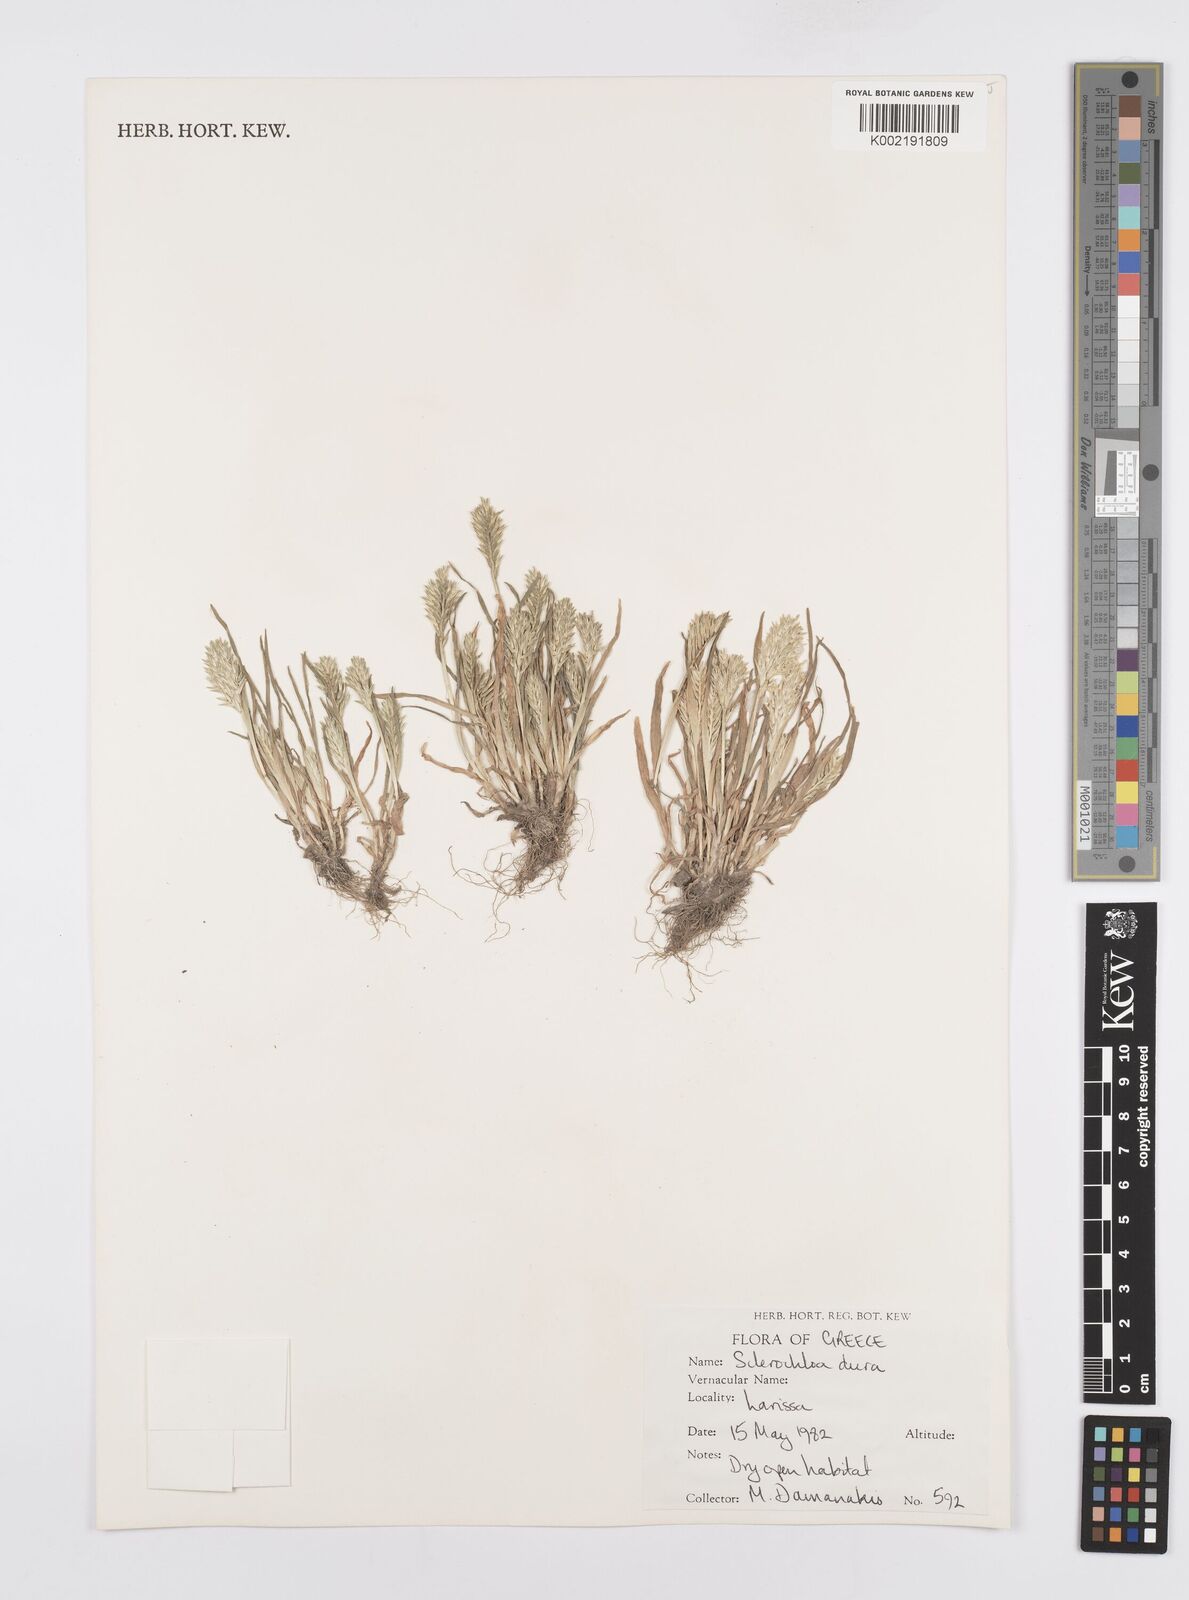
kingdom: Plantae
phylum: Tracheophyta
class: Liliopsida
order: Poales
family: Poaceae
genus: Sclerochloa
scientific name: Sclerochloa dura
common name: Common hardgrass
